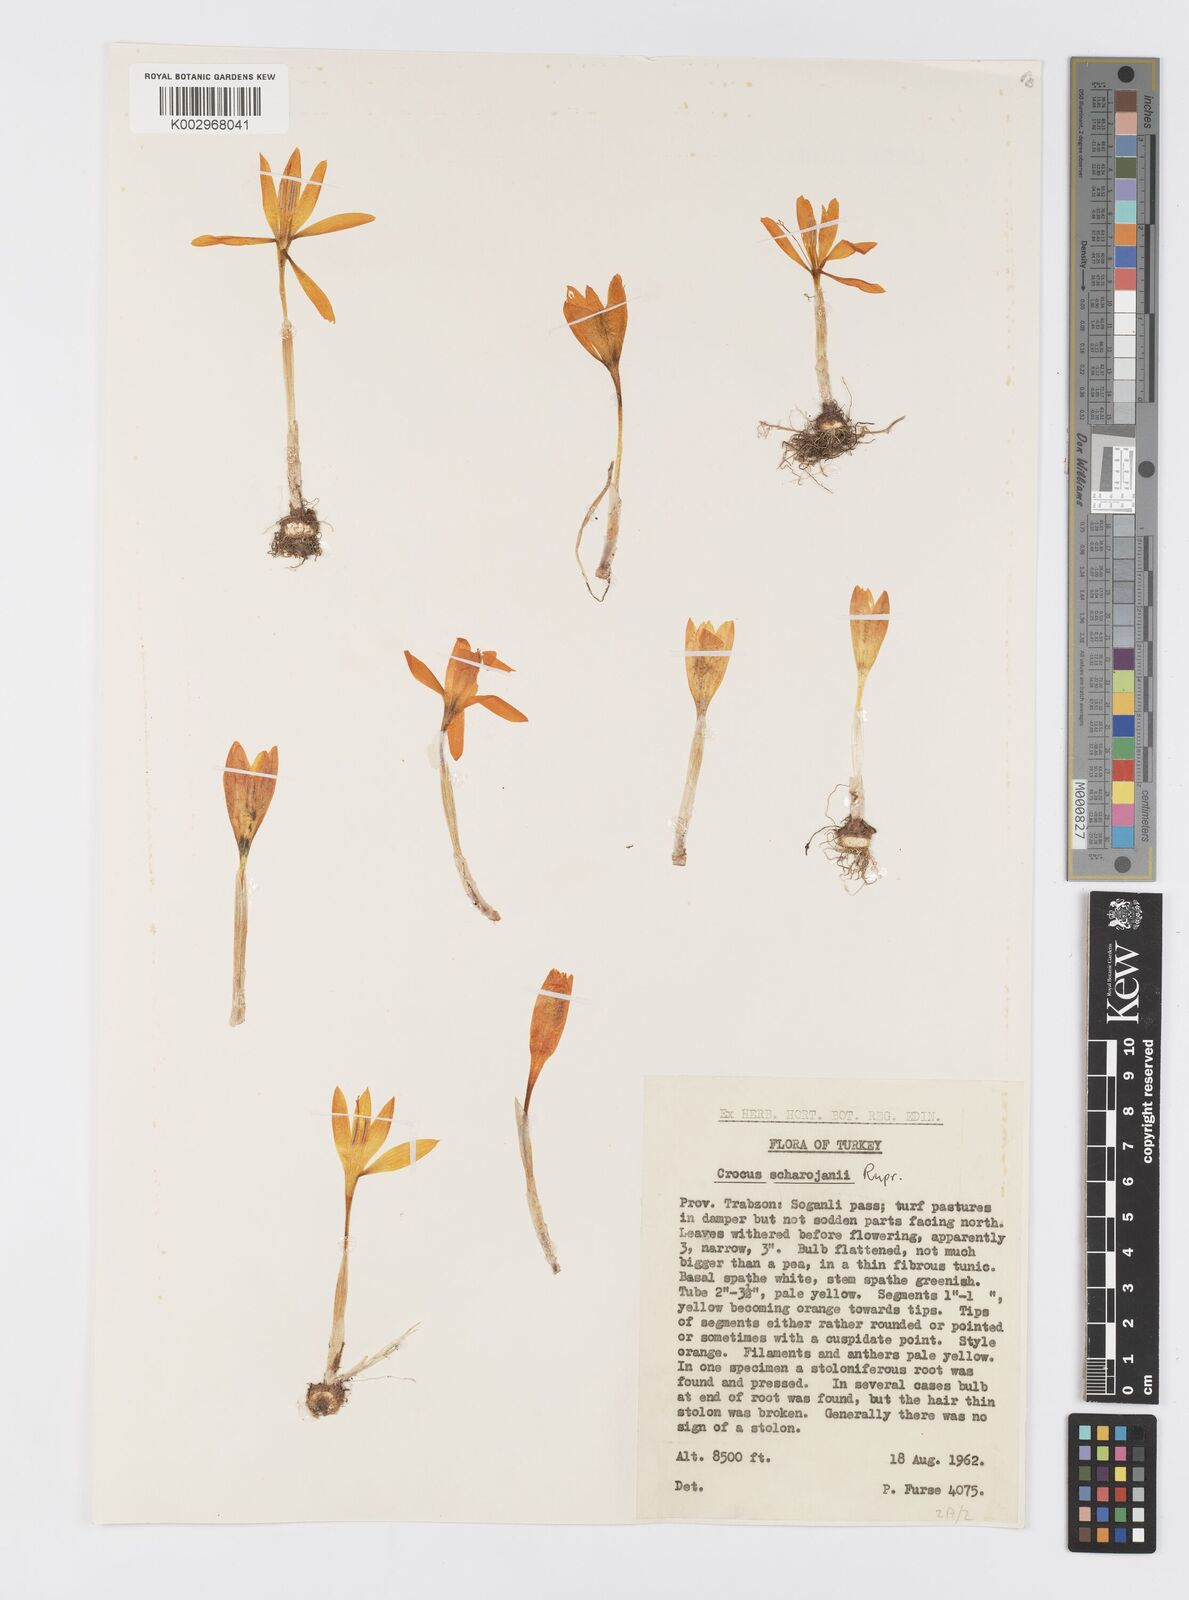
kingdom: Plantae
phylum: Tracheophyta
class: Liliopsida
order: Asparagales
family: Iridaceae
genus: Crocus
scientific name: Crocus lazicus
